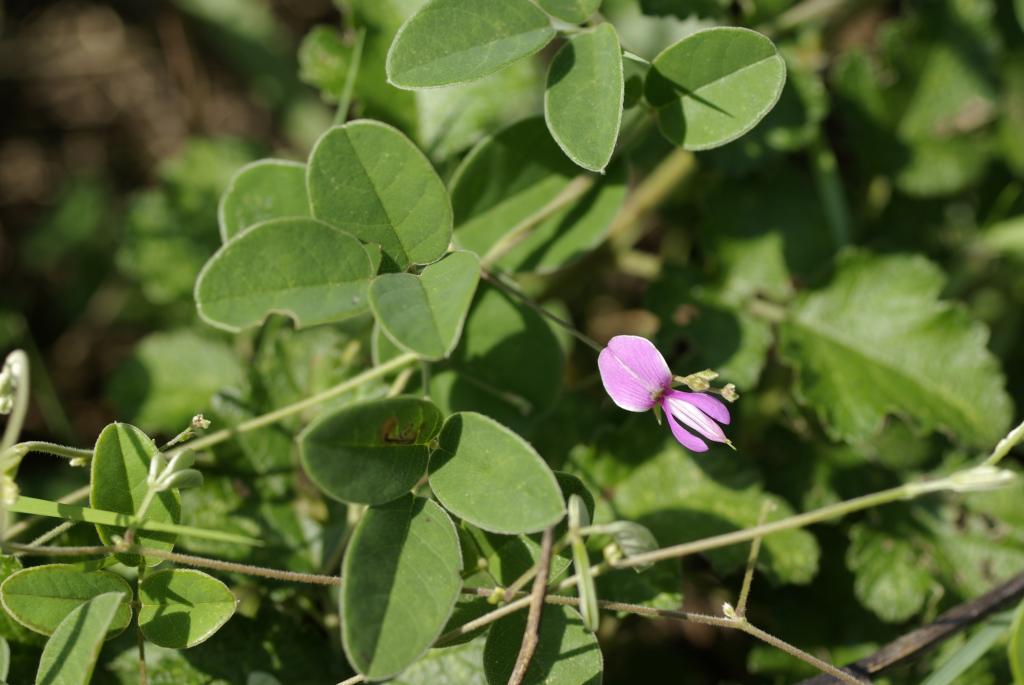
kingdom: Plantae
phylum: Tracheophyta
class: Magnoliopsida
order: Fabales
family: Fabaceae
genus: Galactia
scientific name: Galactia tashiroi
